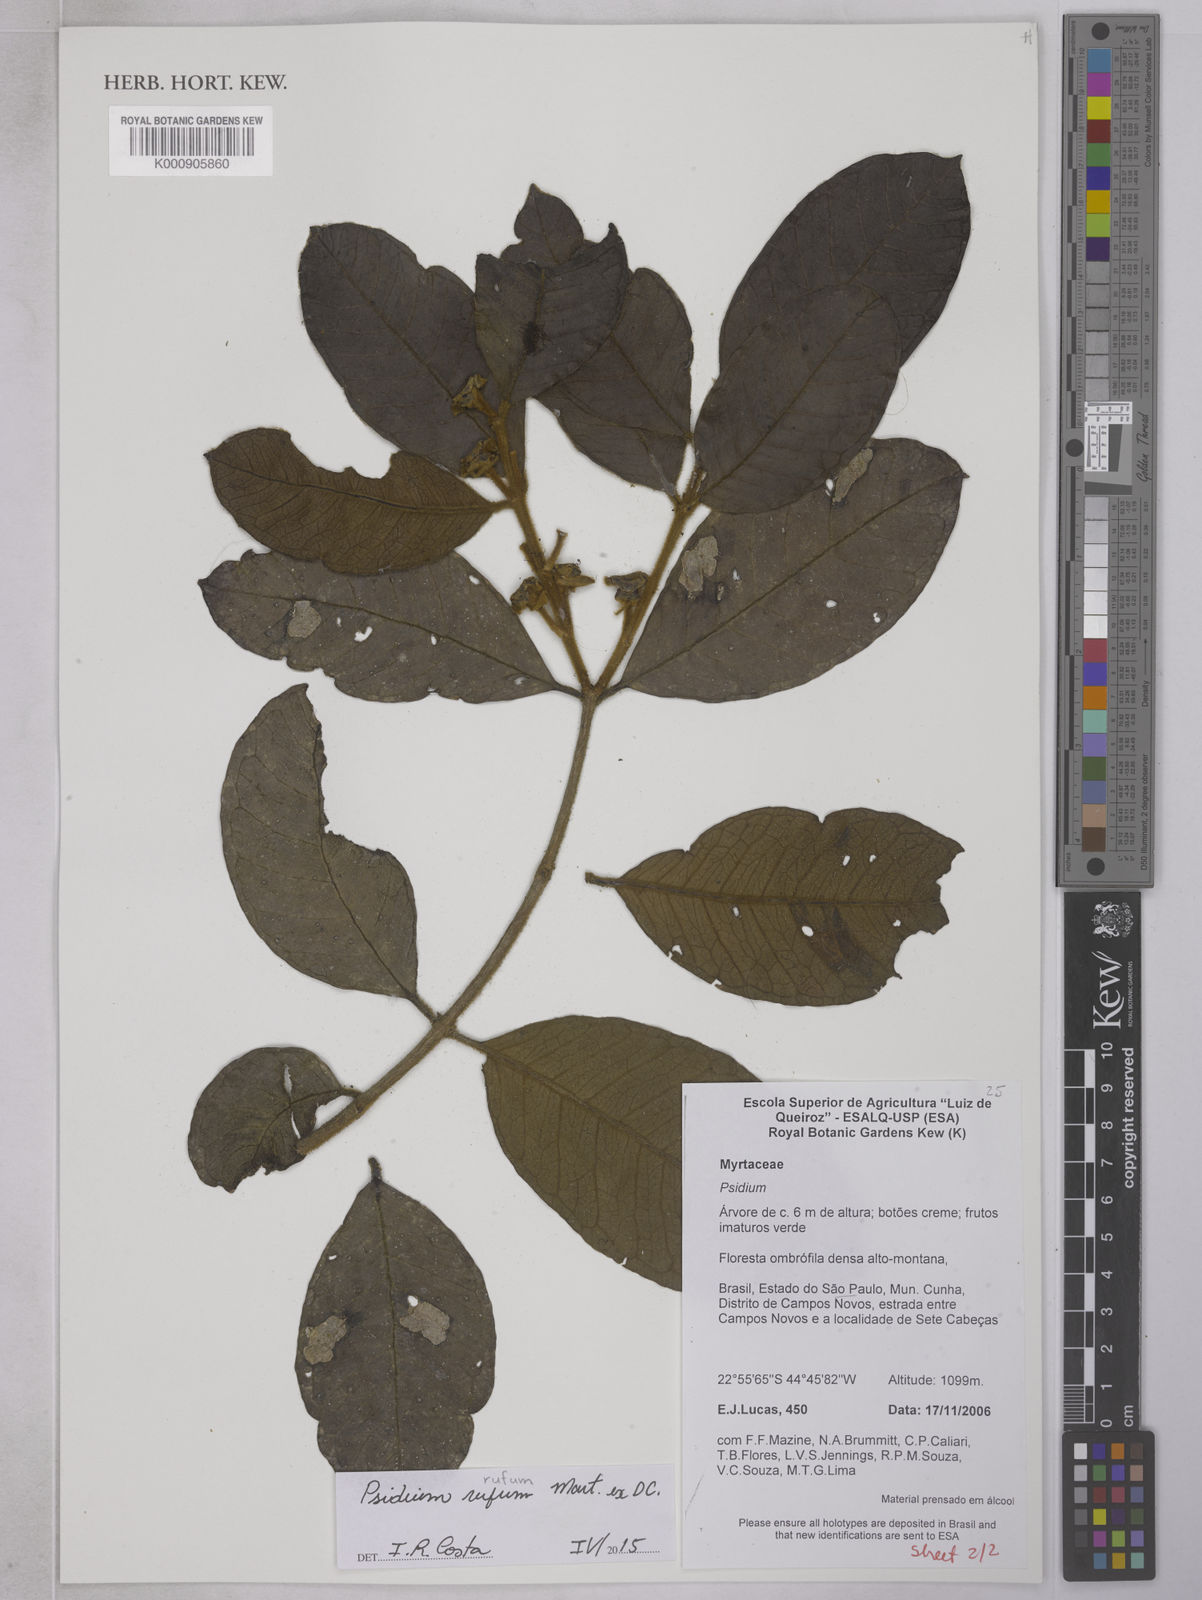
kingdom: Plantae
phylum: Tracheophyta
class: Magnoliopsida
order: Myrtales
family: Myrtaceae
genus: Psidium
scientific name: Psidium rufum
